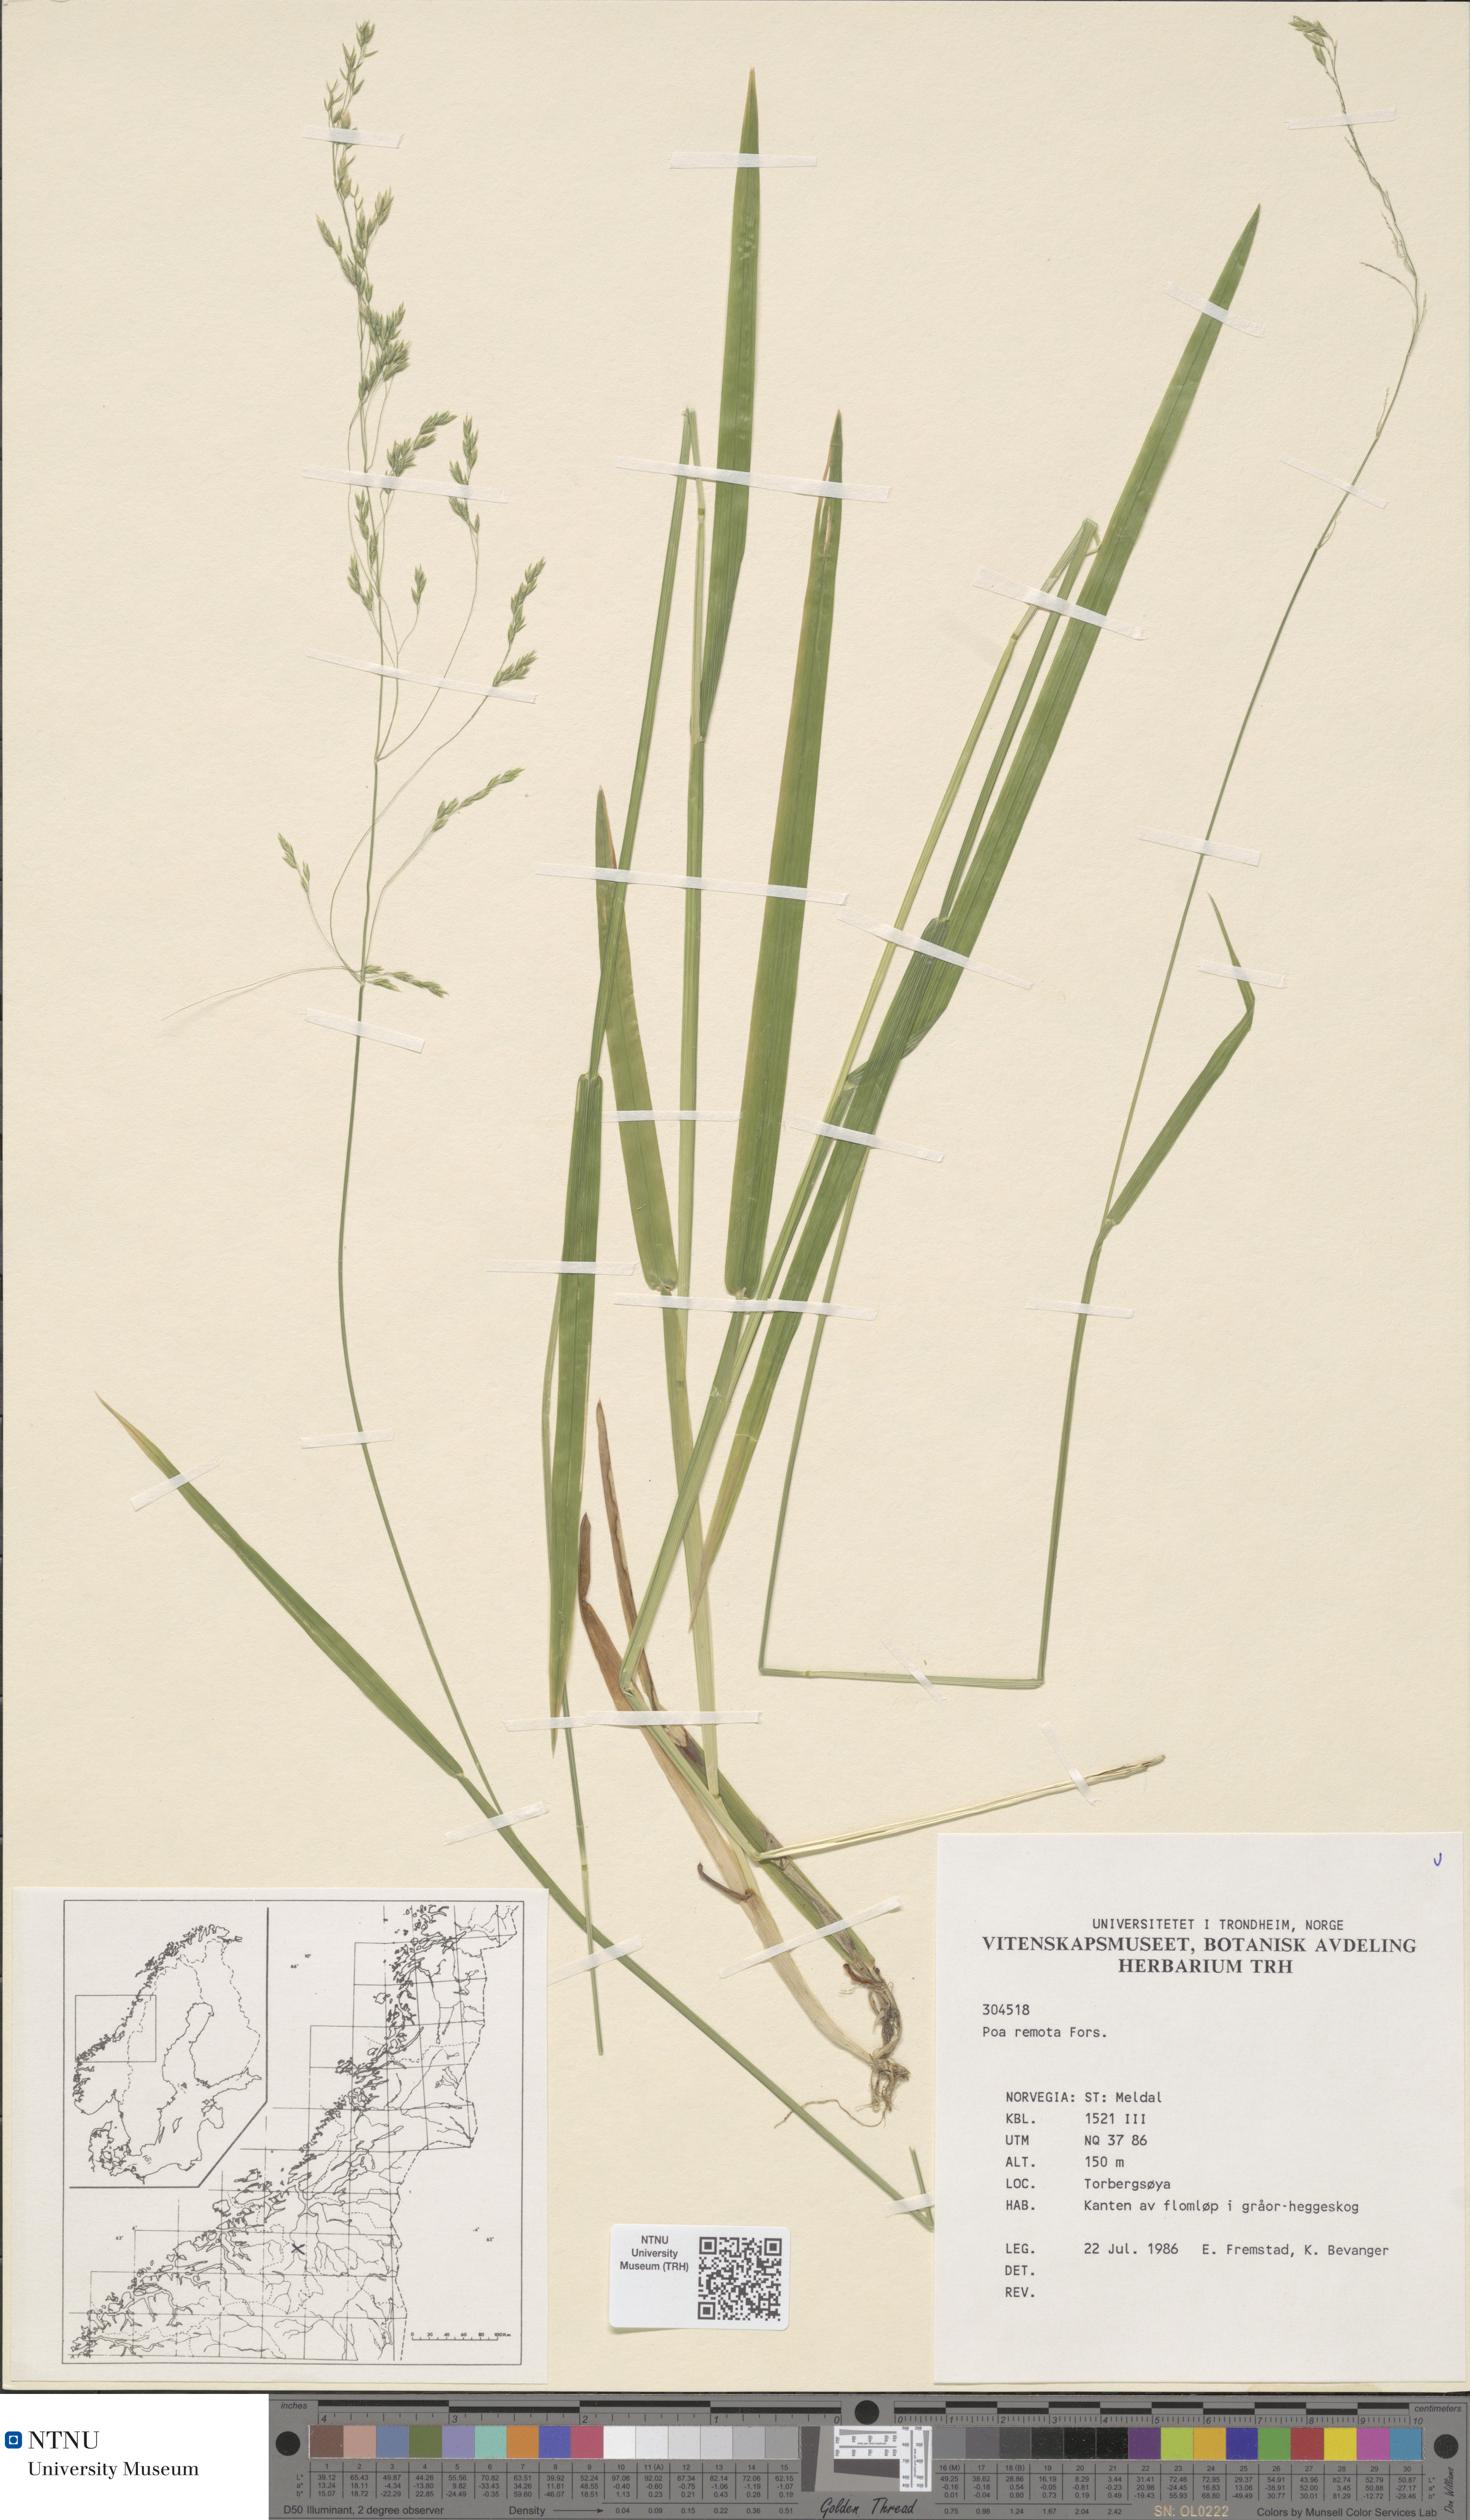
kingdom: Plantae
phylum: Tracheophyta
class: Liliopsida
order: Poales
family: Poaceae
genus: Poa
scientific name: Poa remota
